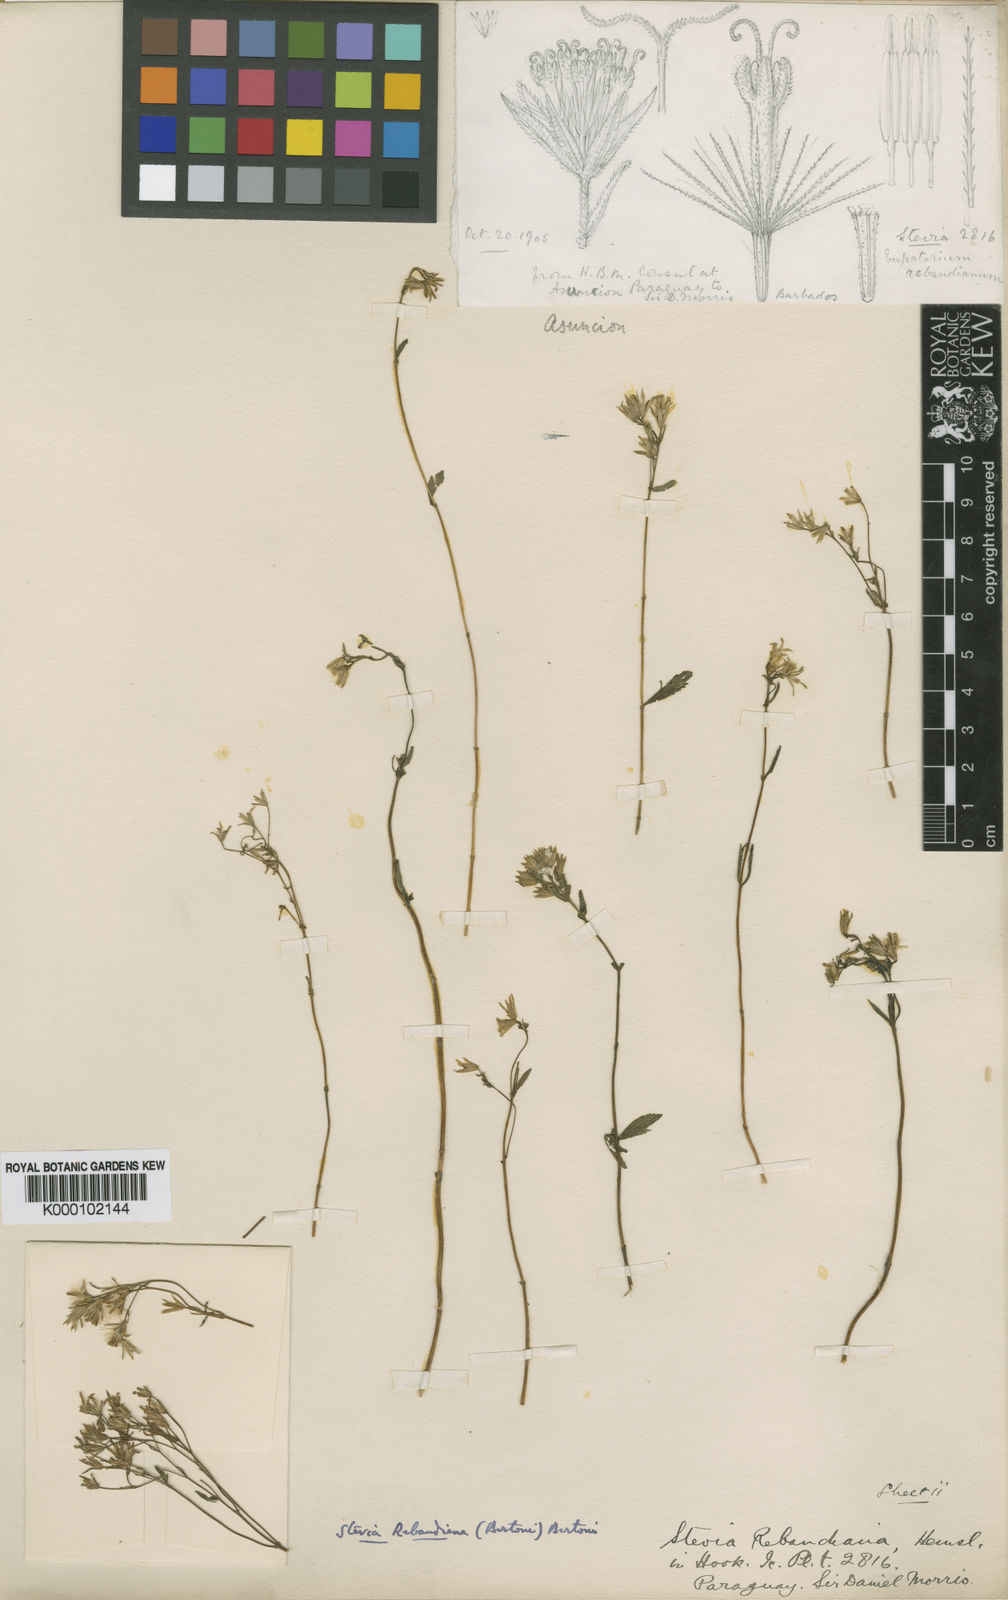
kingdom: Plantae
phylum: Tracheophyta
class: Magnoliopsida
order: Asterales
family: Asteraceae
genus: Stevia
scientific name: Stevia rebaudiana
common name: Stevia
